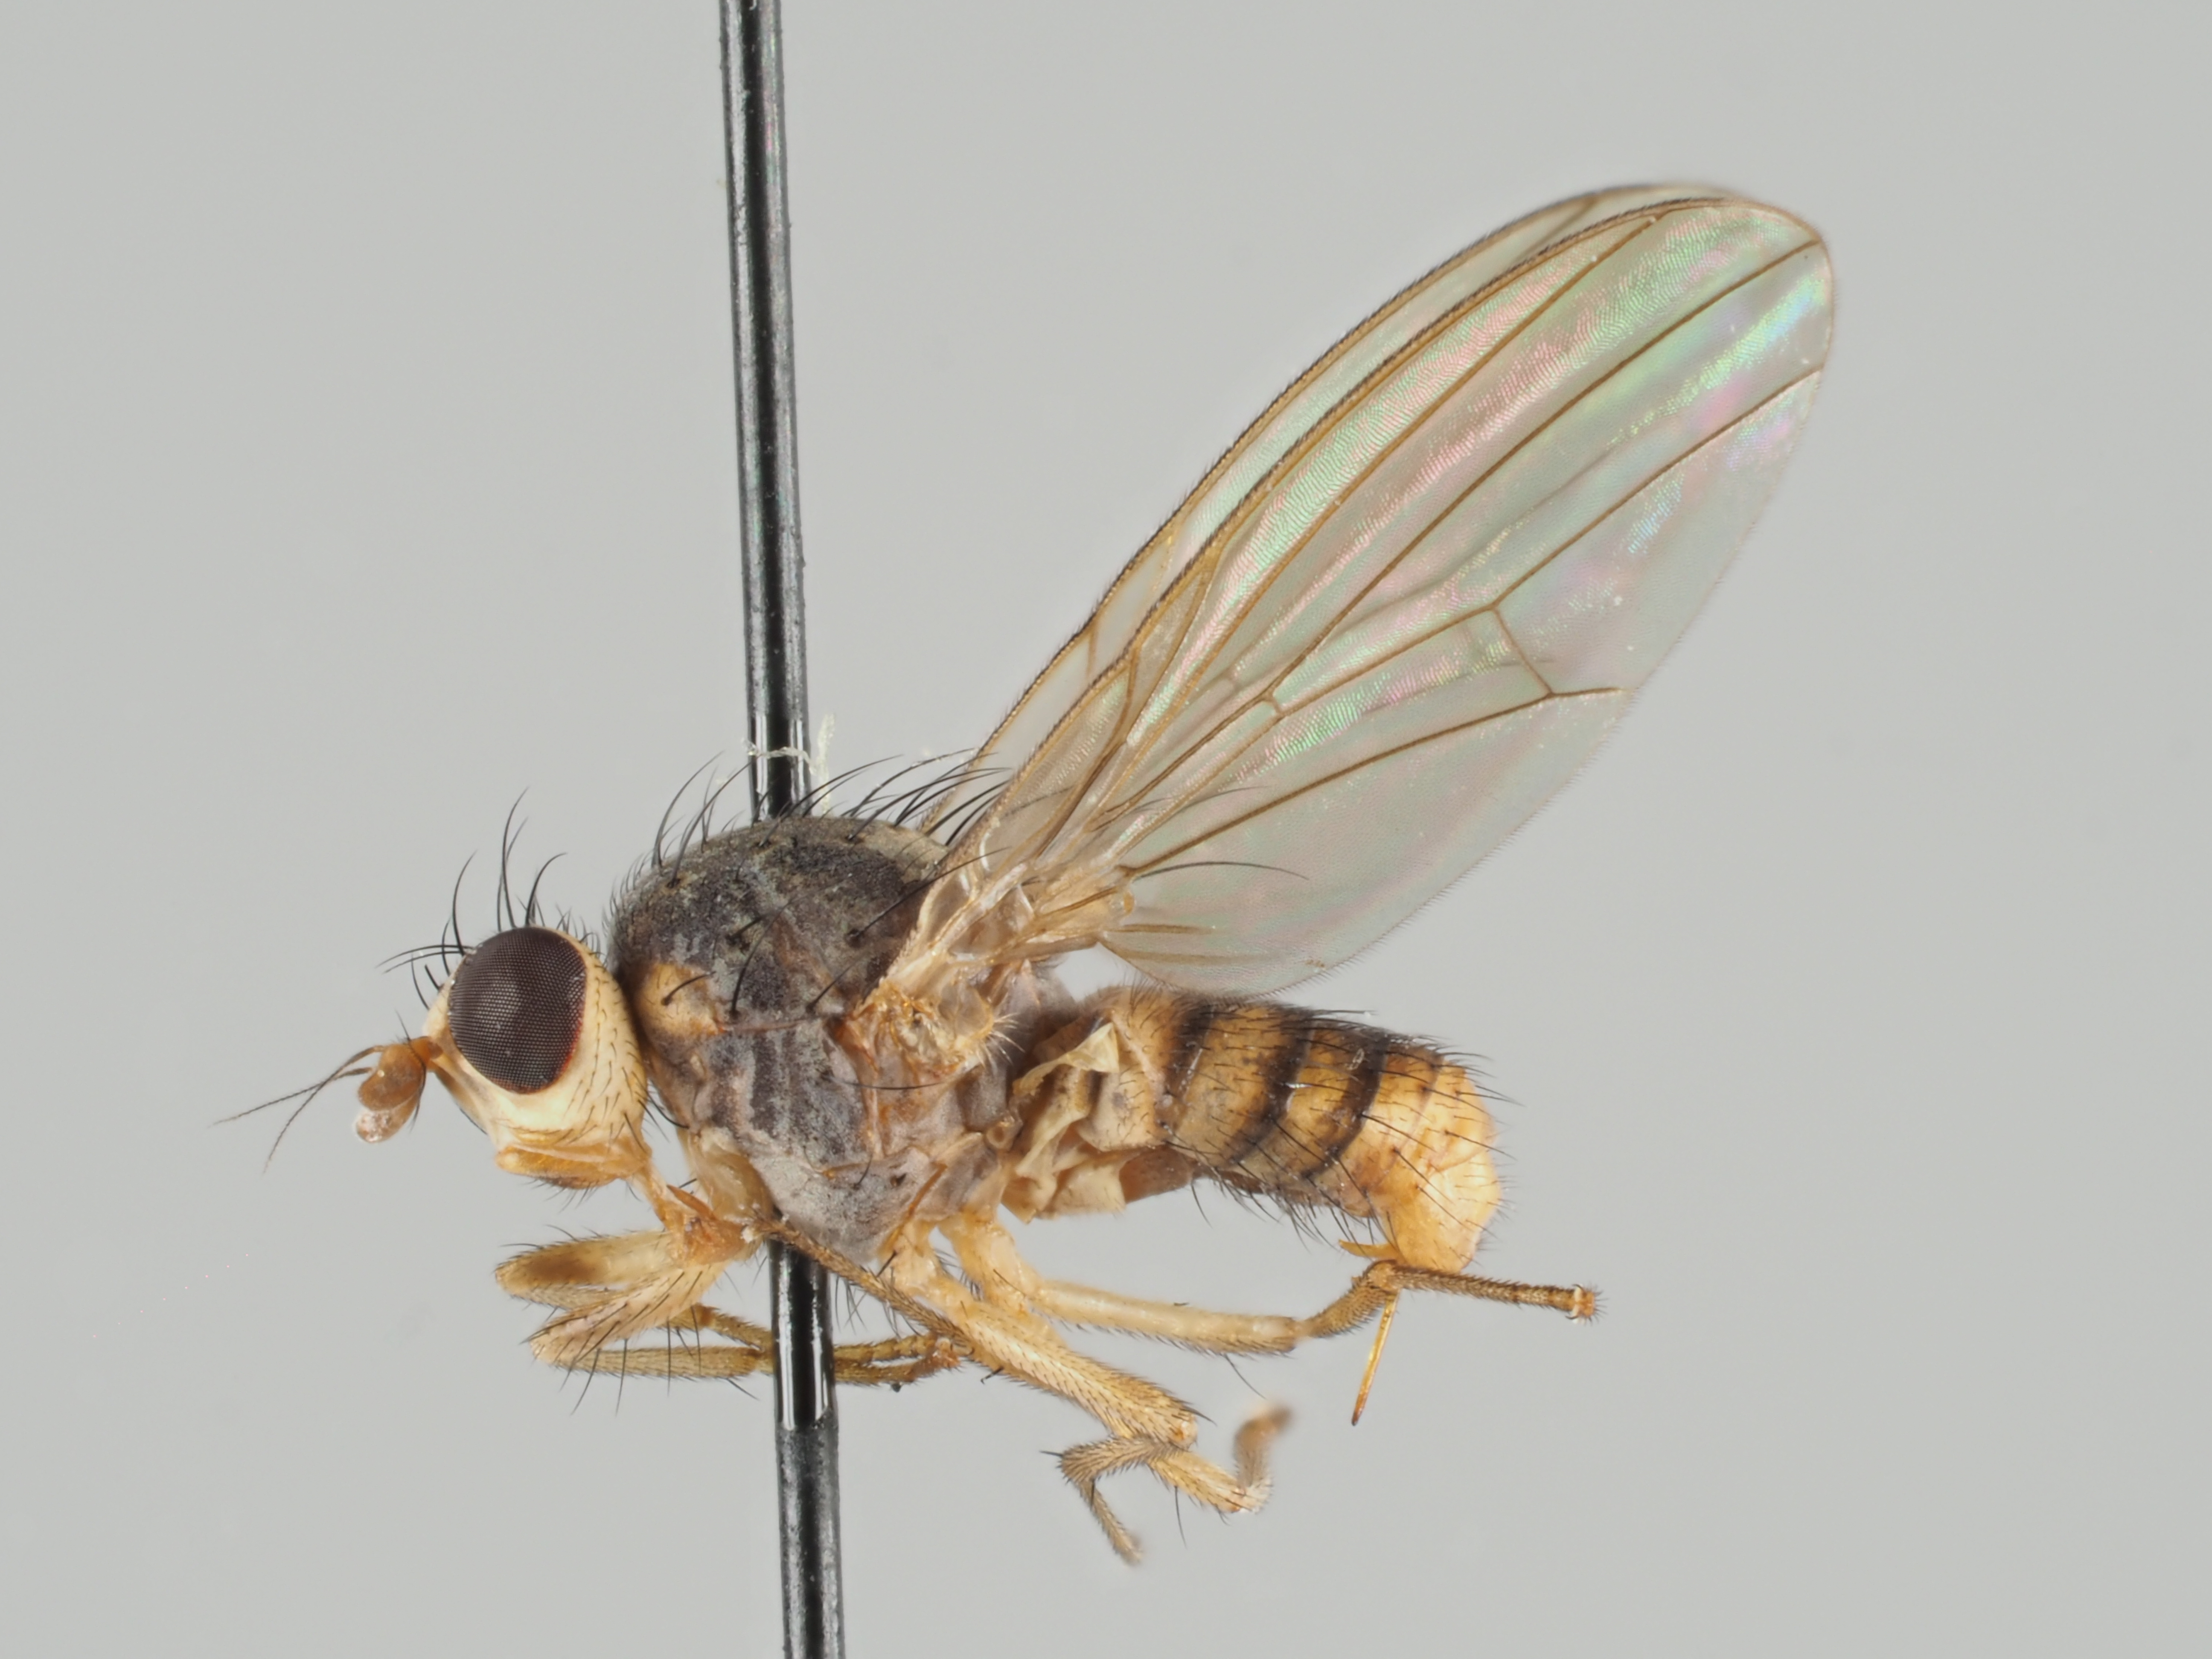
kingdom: Animalia
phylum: Arthropoda
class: Insecta
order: Diptera
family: Lauxaniidae
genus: Meiosimyza
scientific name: Meiosimyza stylata
